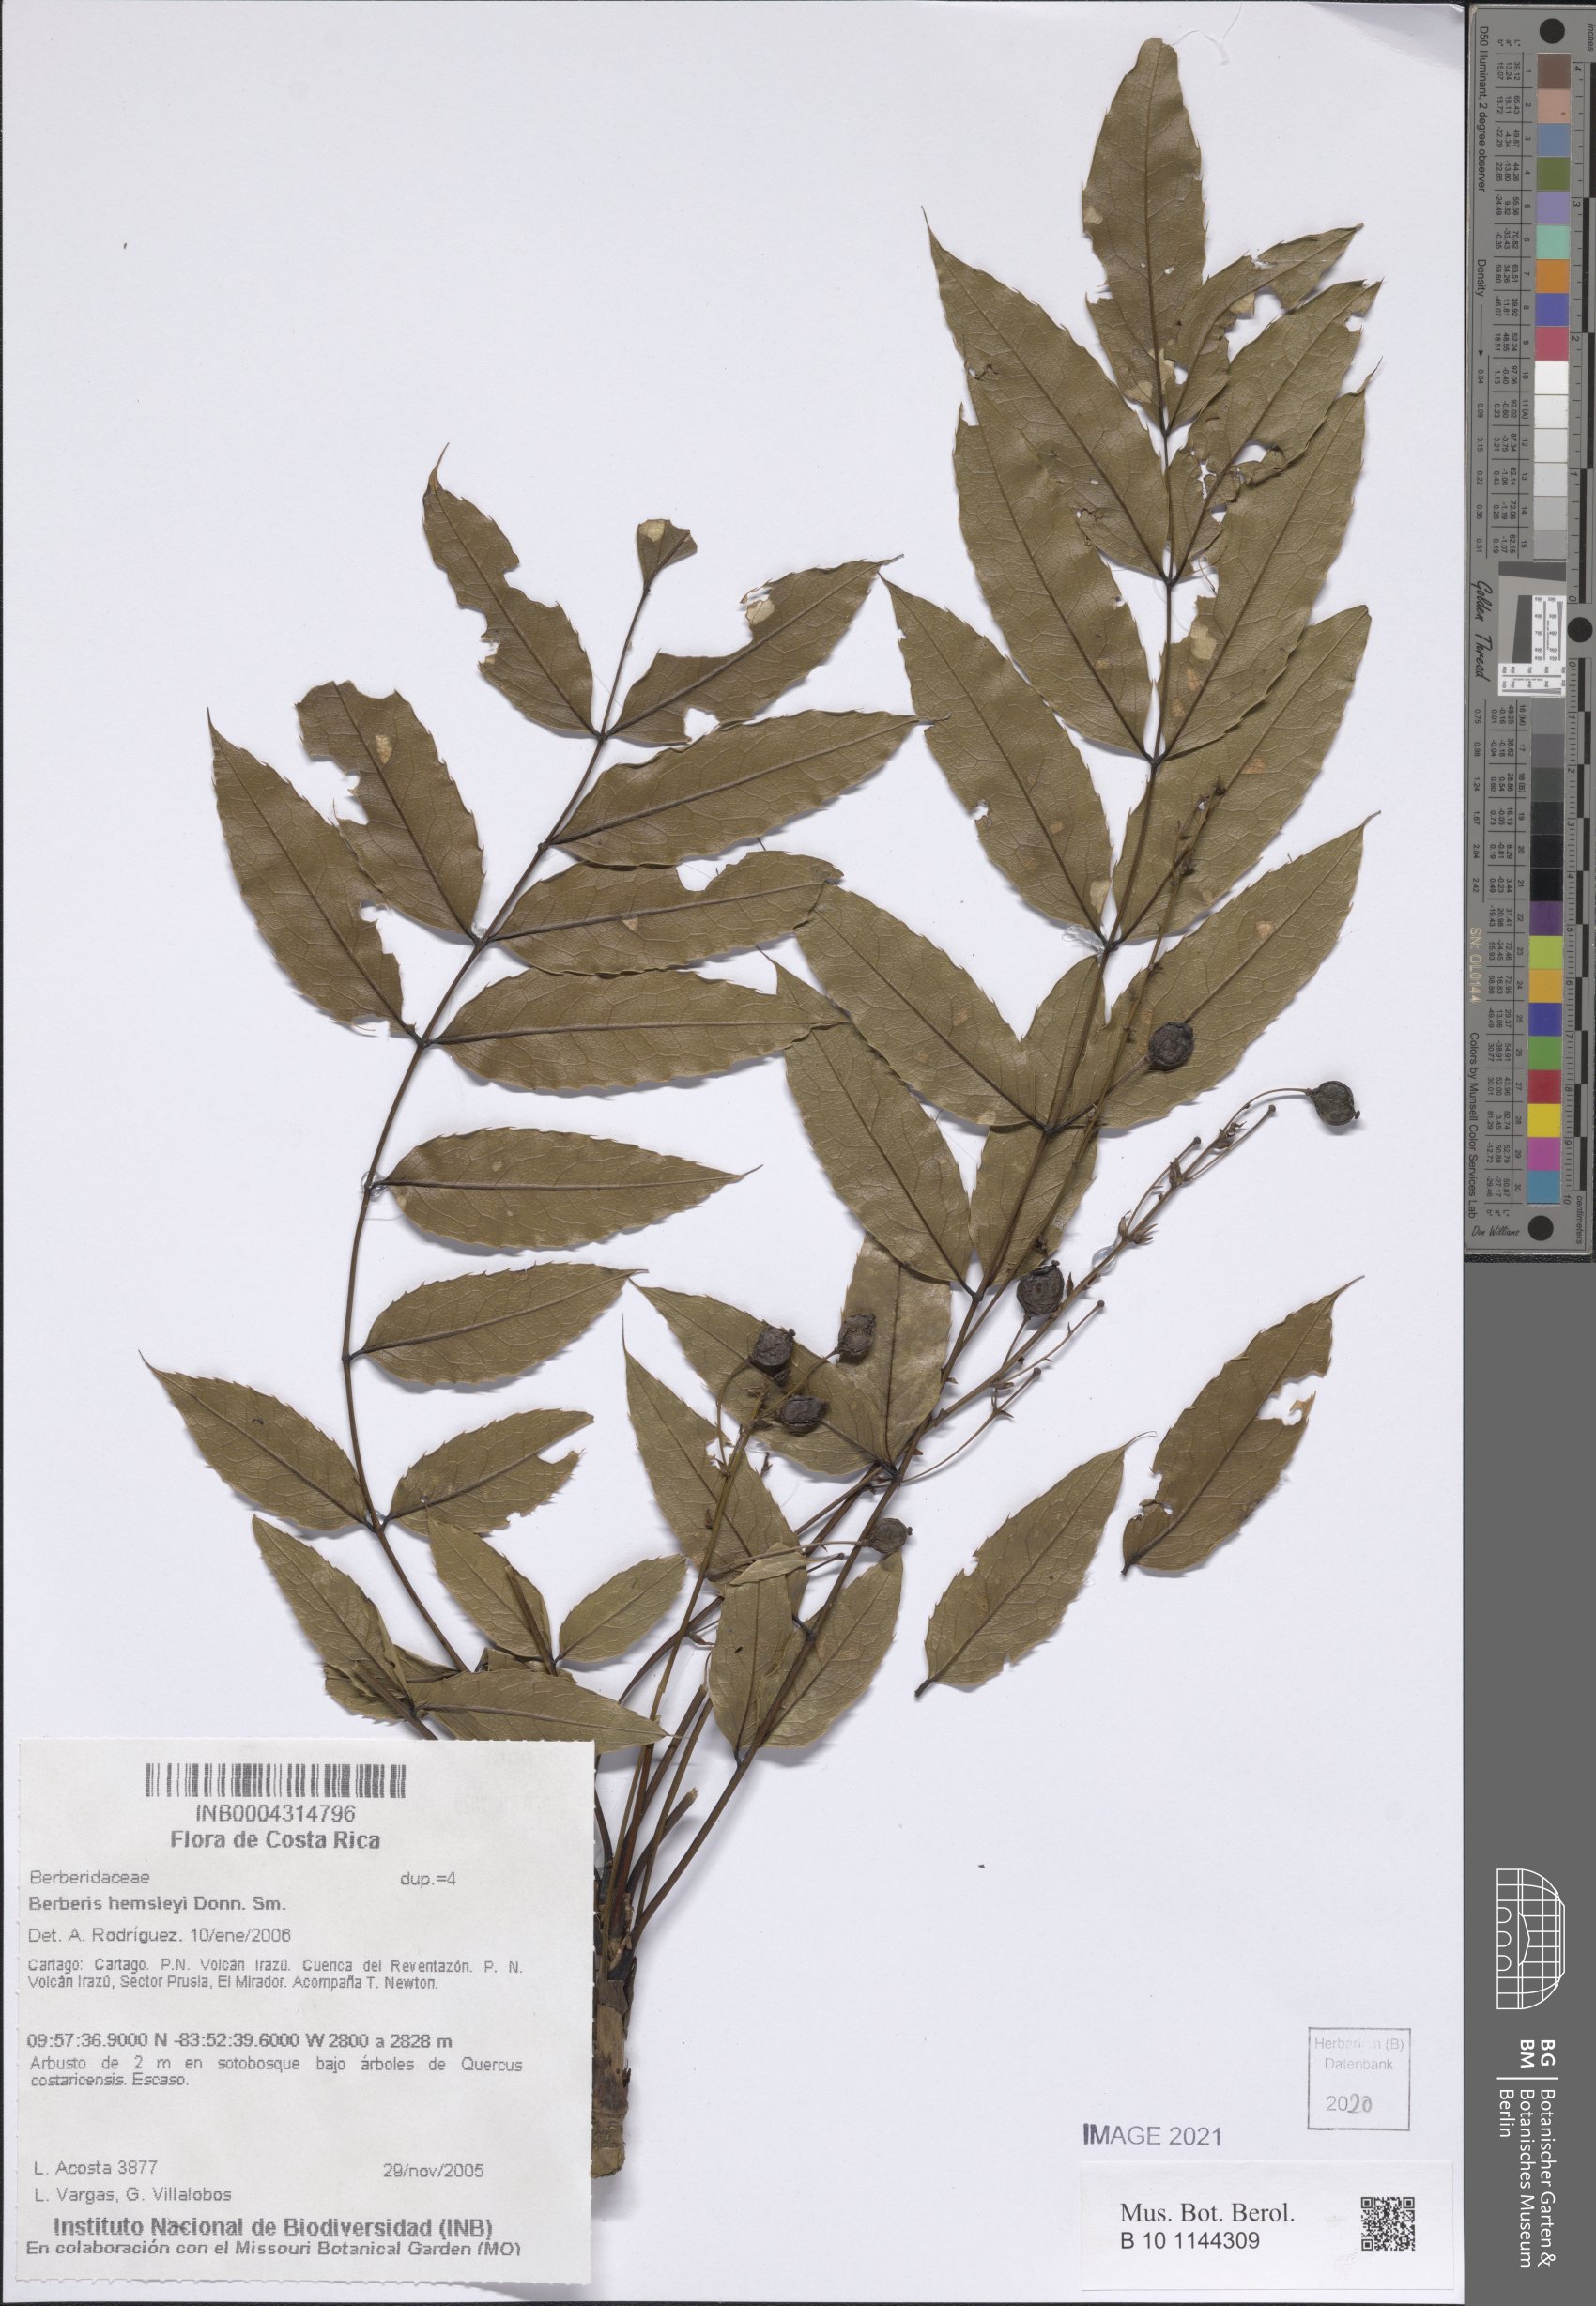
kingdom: Plantae
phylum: Tracheophyta
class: Magnoliopsida
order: Ranunculales
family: Berberidaceae
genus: Berberis
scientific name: Berberis hemsleyi
